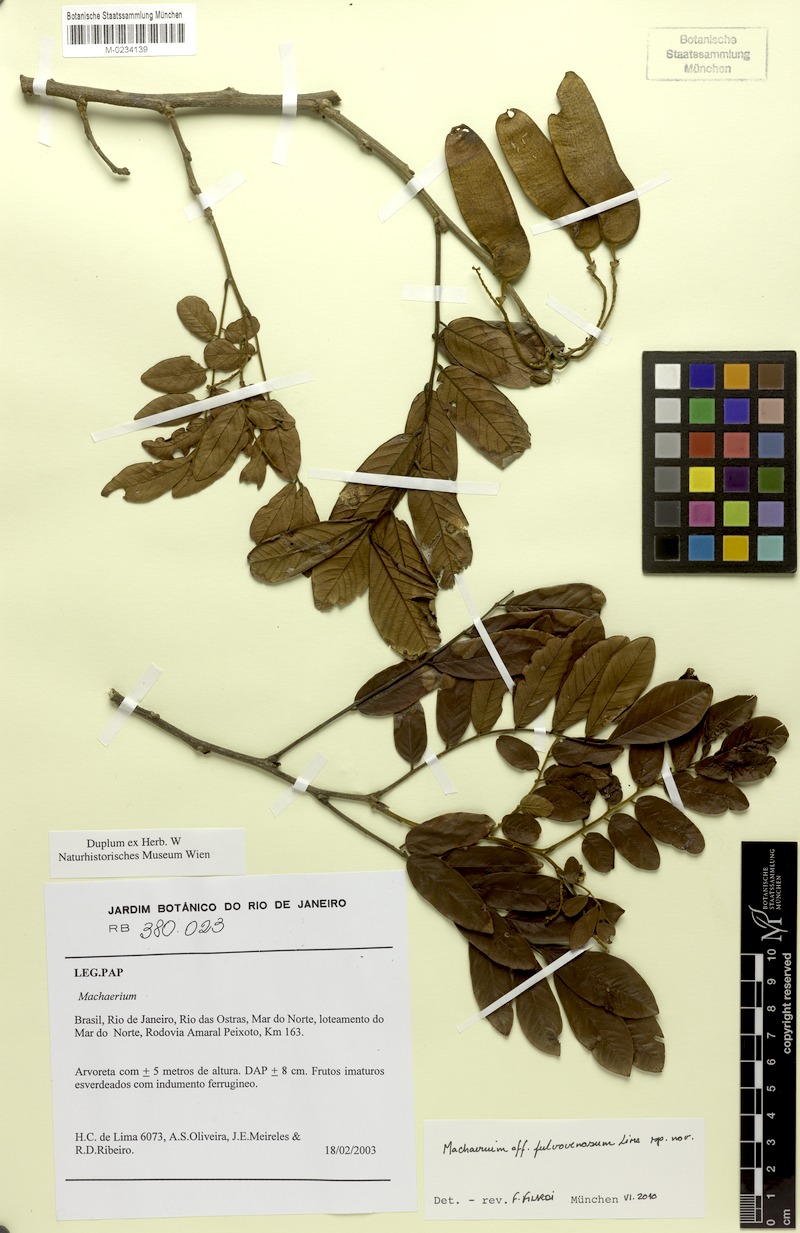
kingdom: Plantae
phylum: Tracheophyta
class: Magnoliopsida
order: Fabales
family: Fabaceae
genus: Machaerium
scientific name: Machaerium robsonianum
